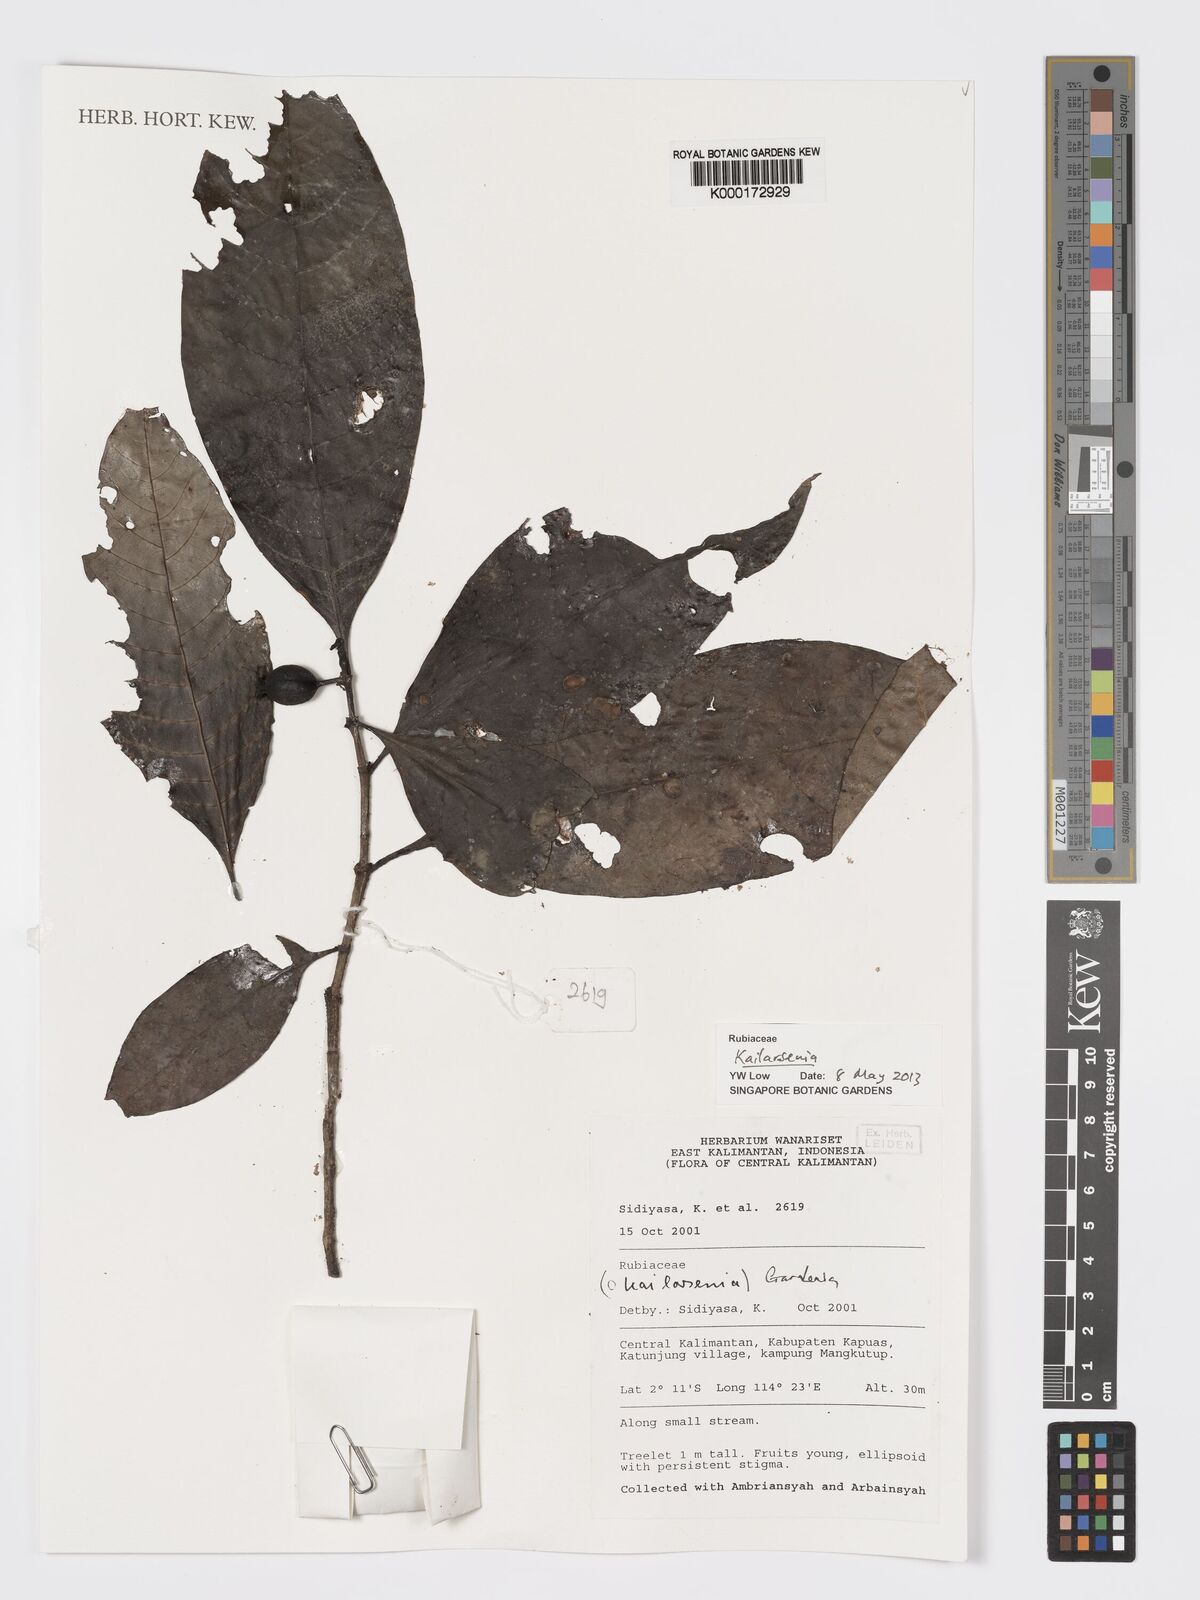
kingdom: Plantae
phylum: Tracheophyta
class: Magnoliopsida
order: Gentianales
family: Rubiaceae
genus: Kailarsenia
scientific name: Kailarsenia
